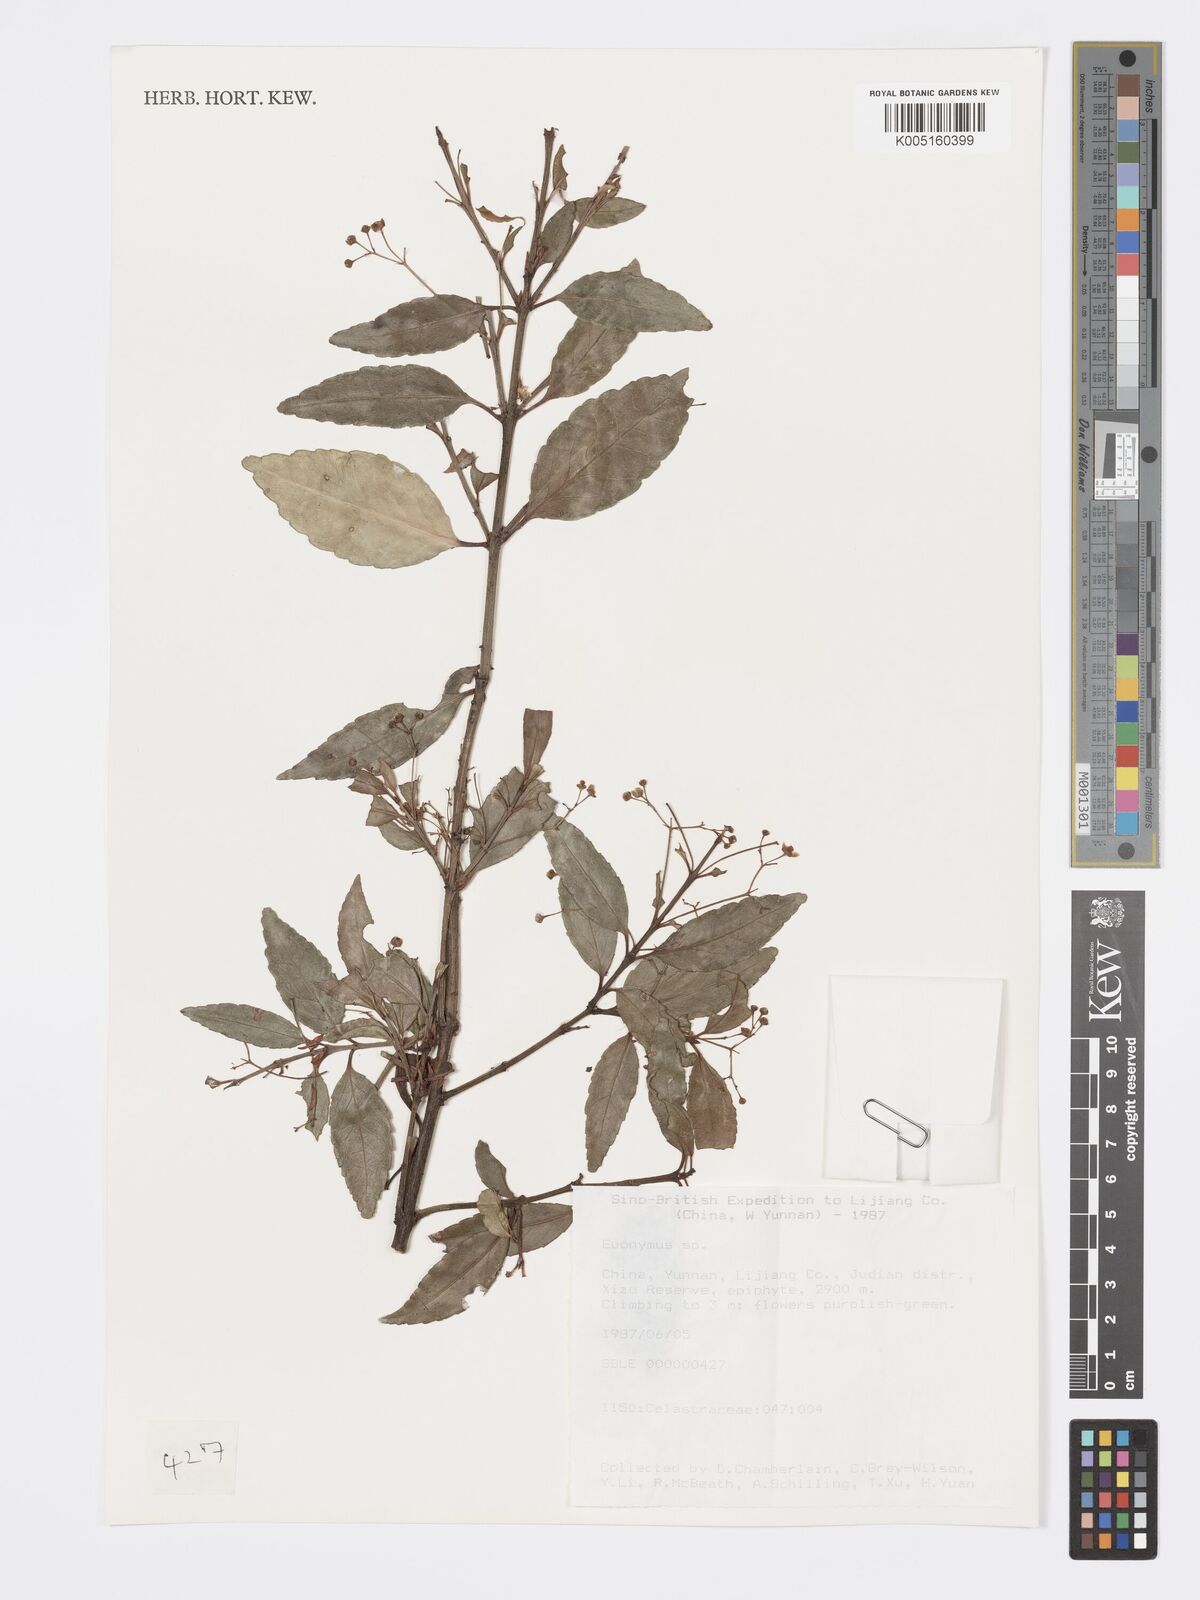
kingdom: Plantae
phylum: Tracheophyta
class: Magnoliopsida
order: Celastrales
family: Celastraceae
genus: Euonymus
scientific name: Euonymus
